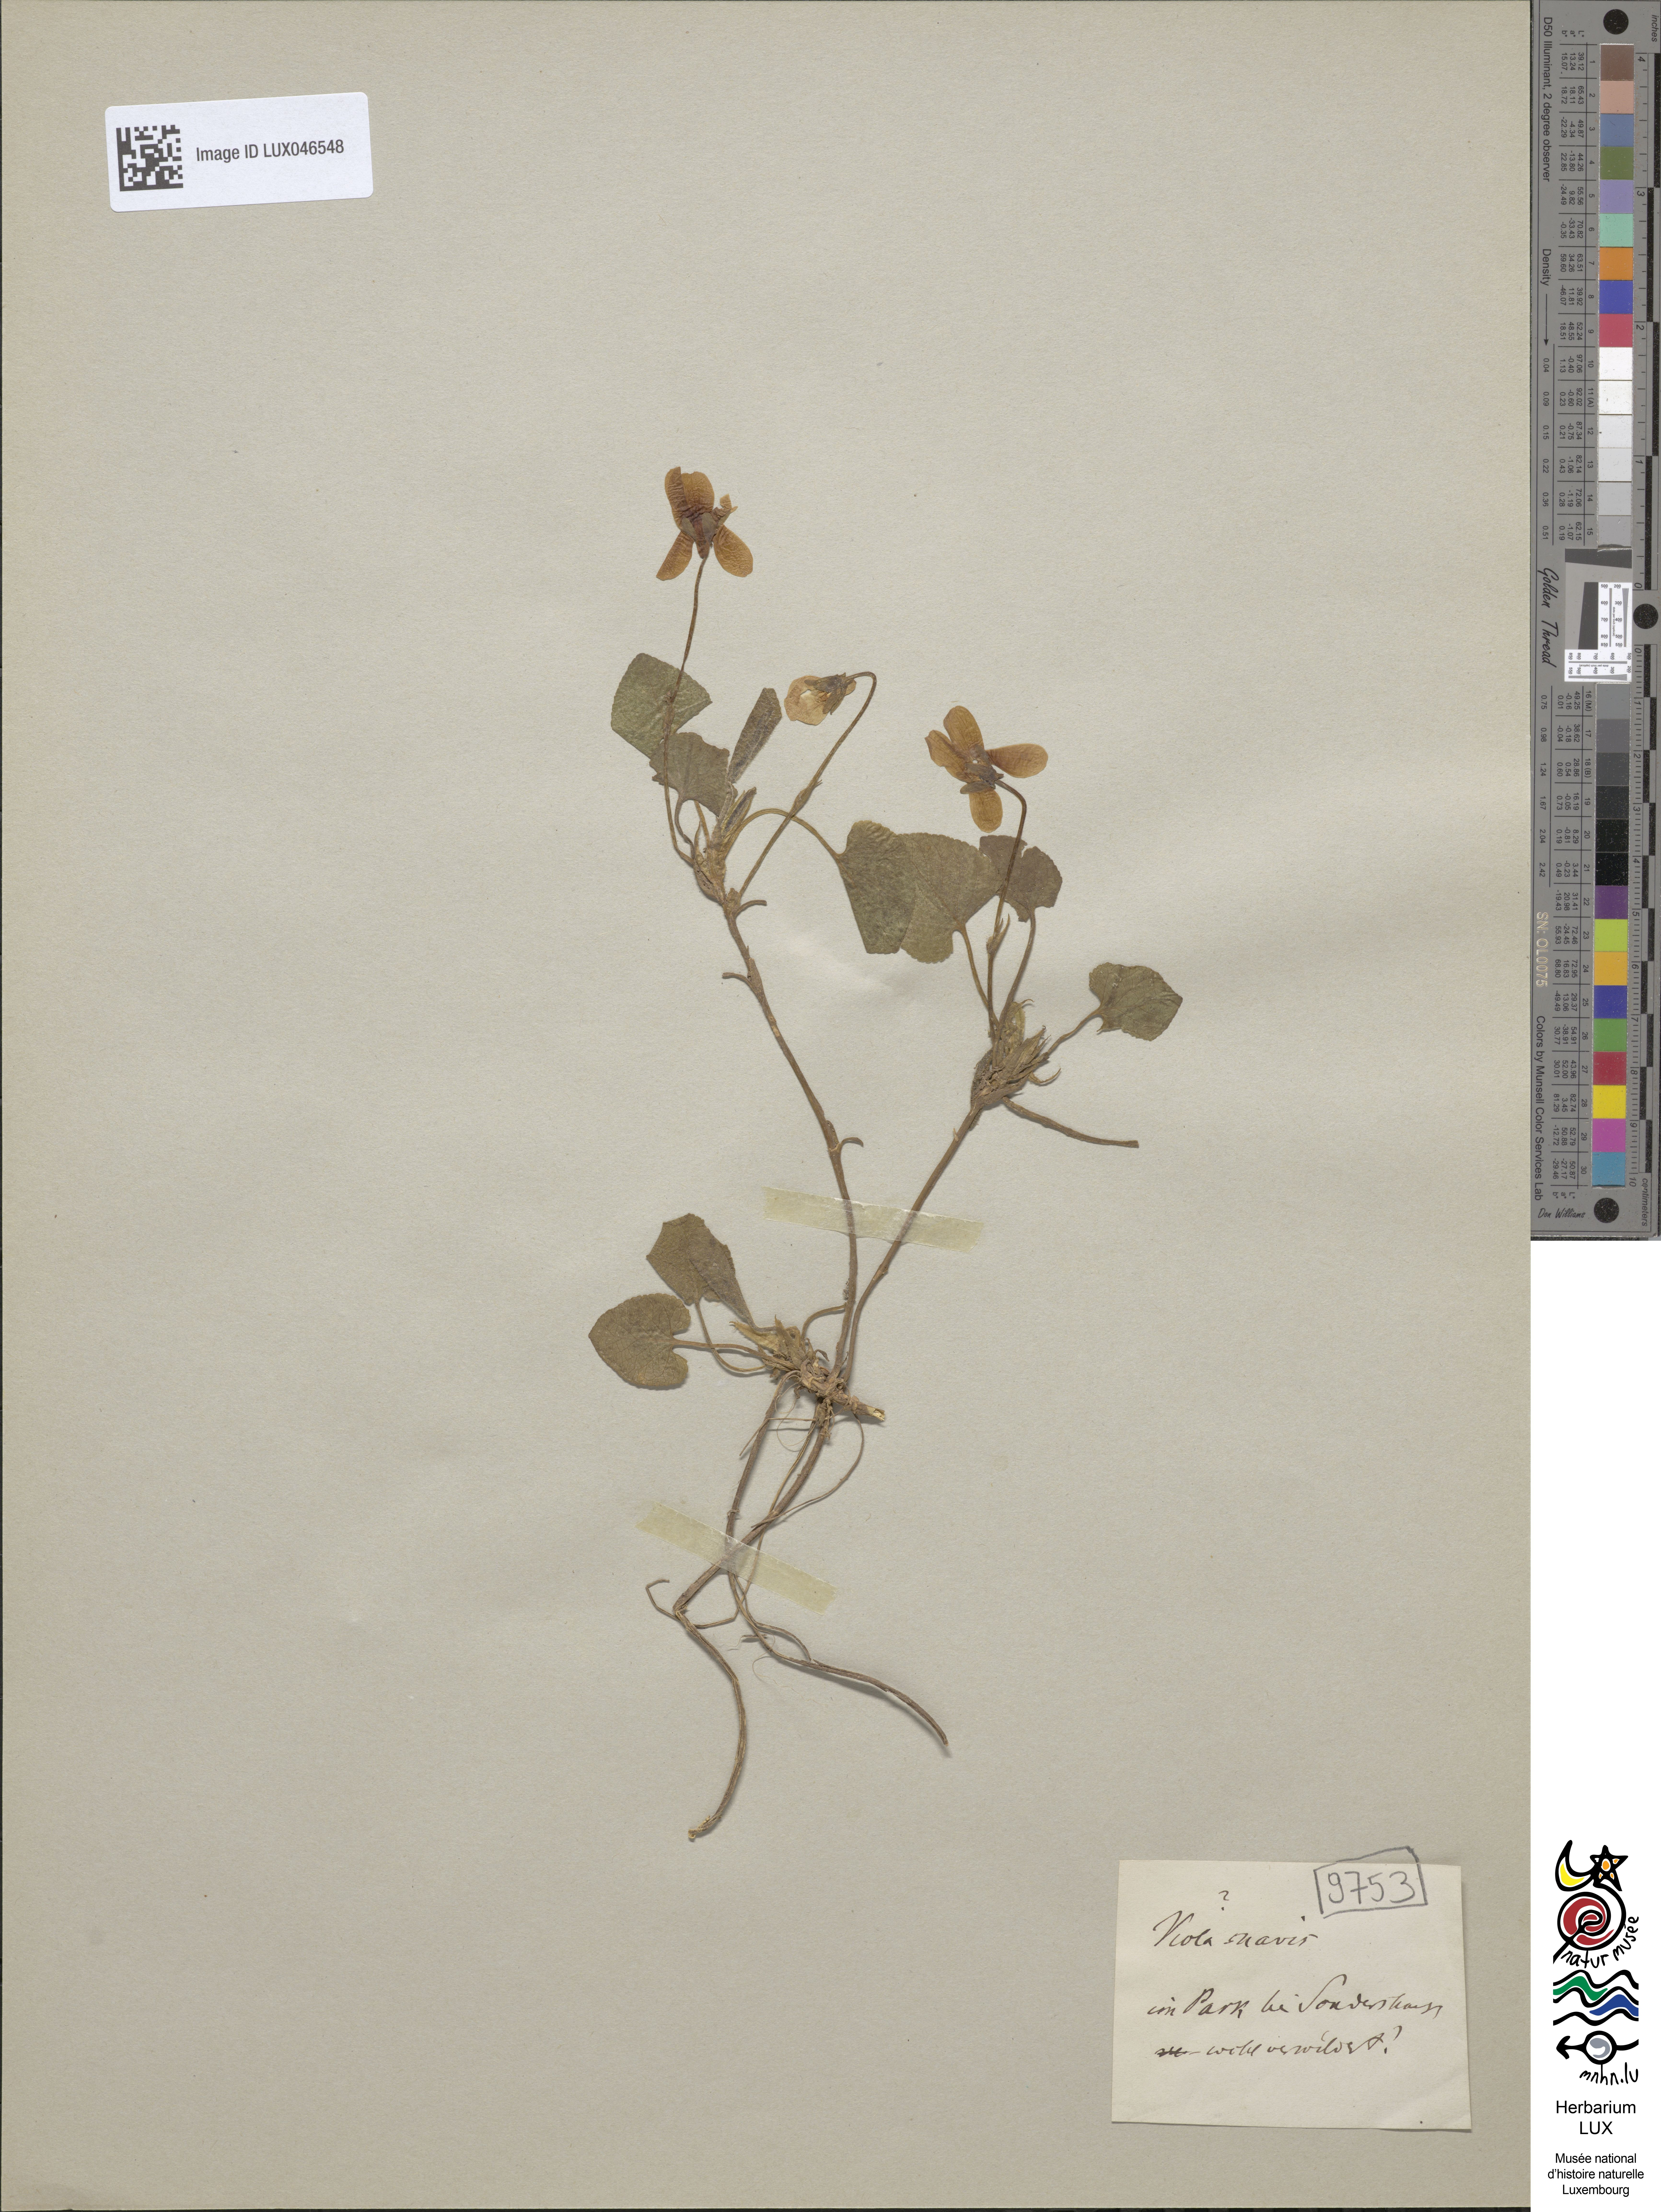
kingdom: Plantae
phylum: Tracheophyta
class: Magnoliopsida
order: Malpighiales
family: Violaceae
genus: Viola
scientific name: Viola suavis
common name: Russian violet
